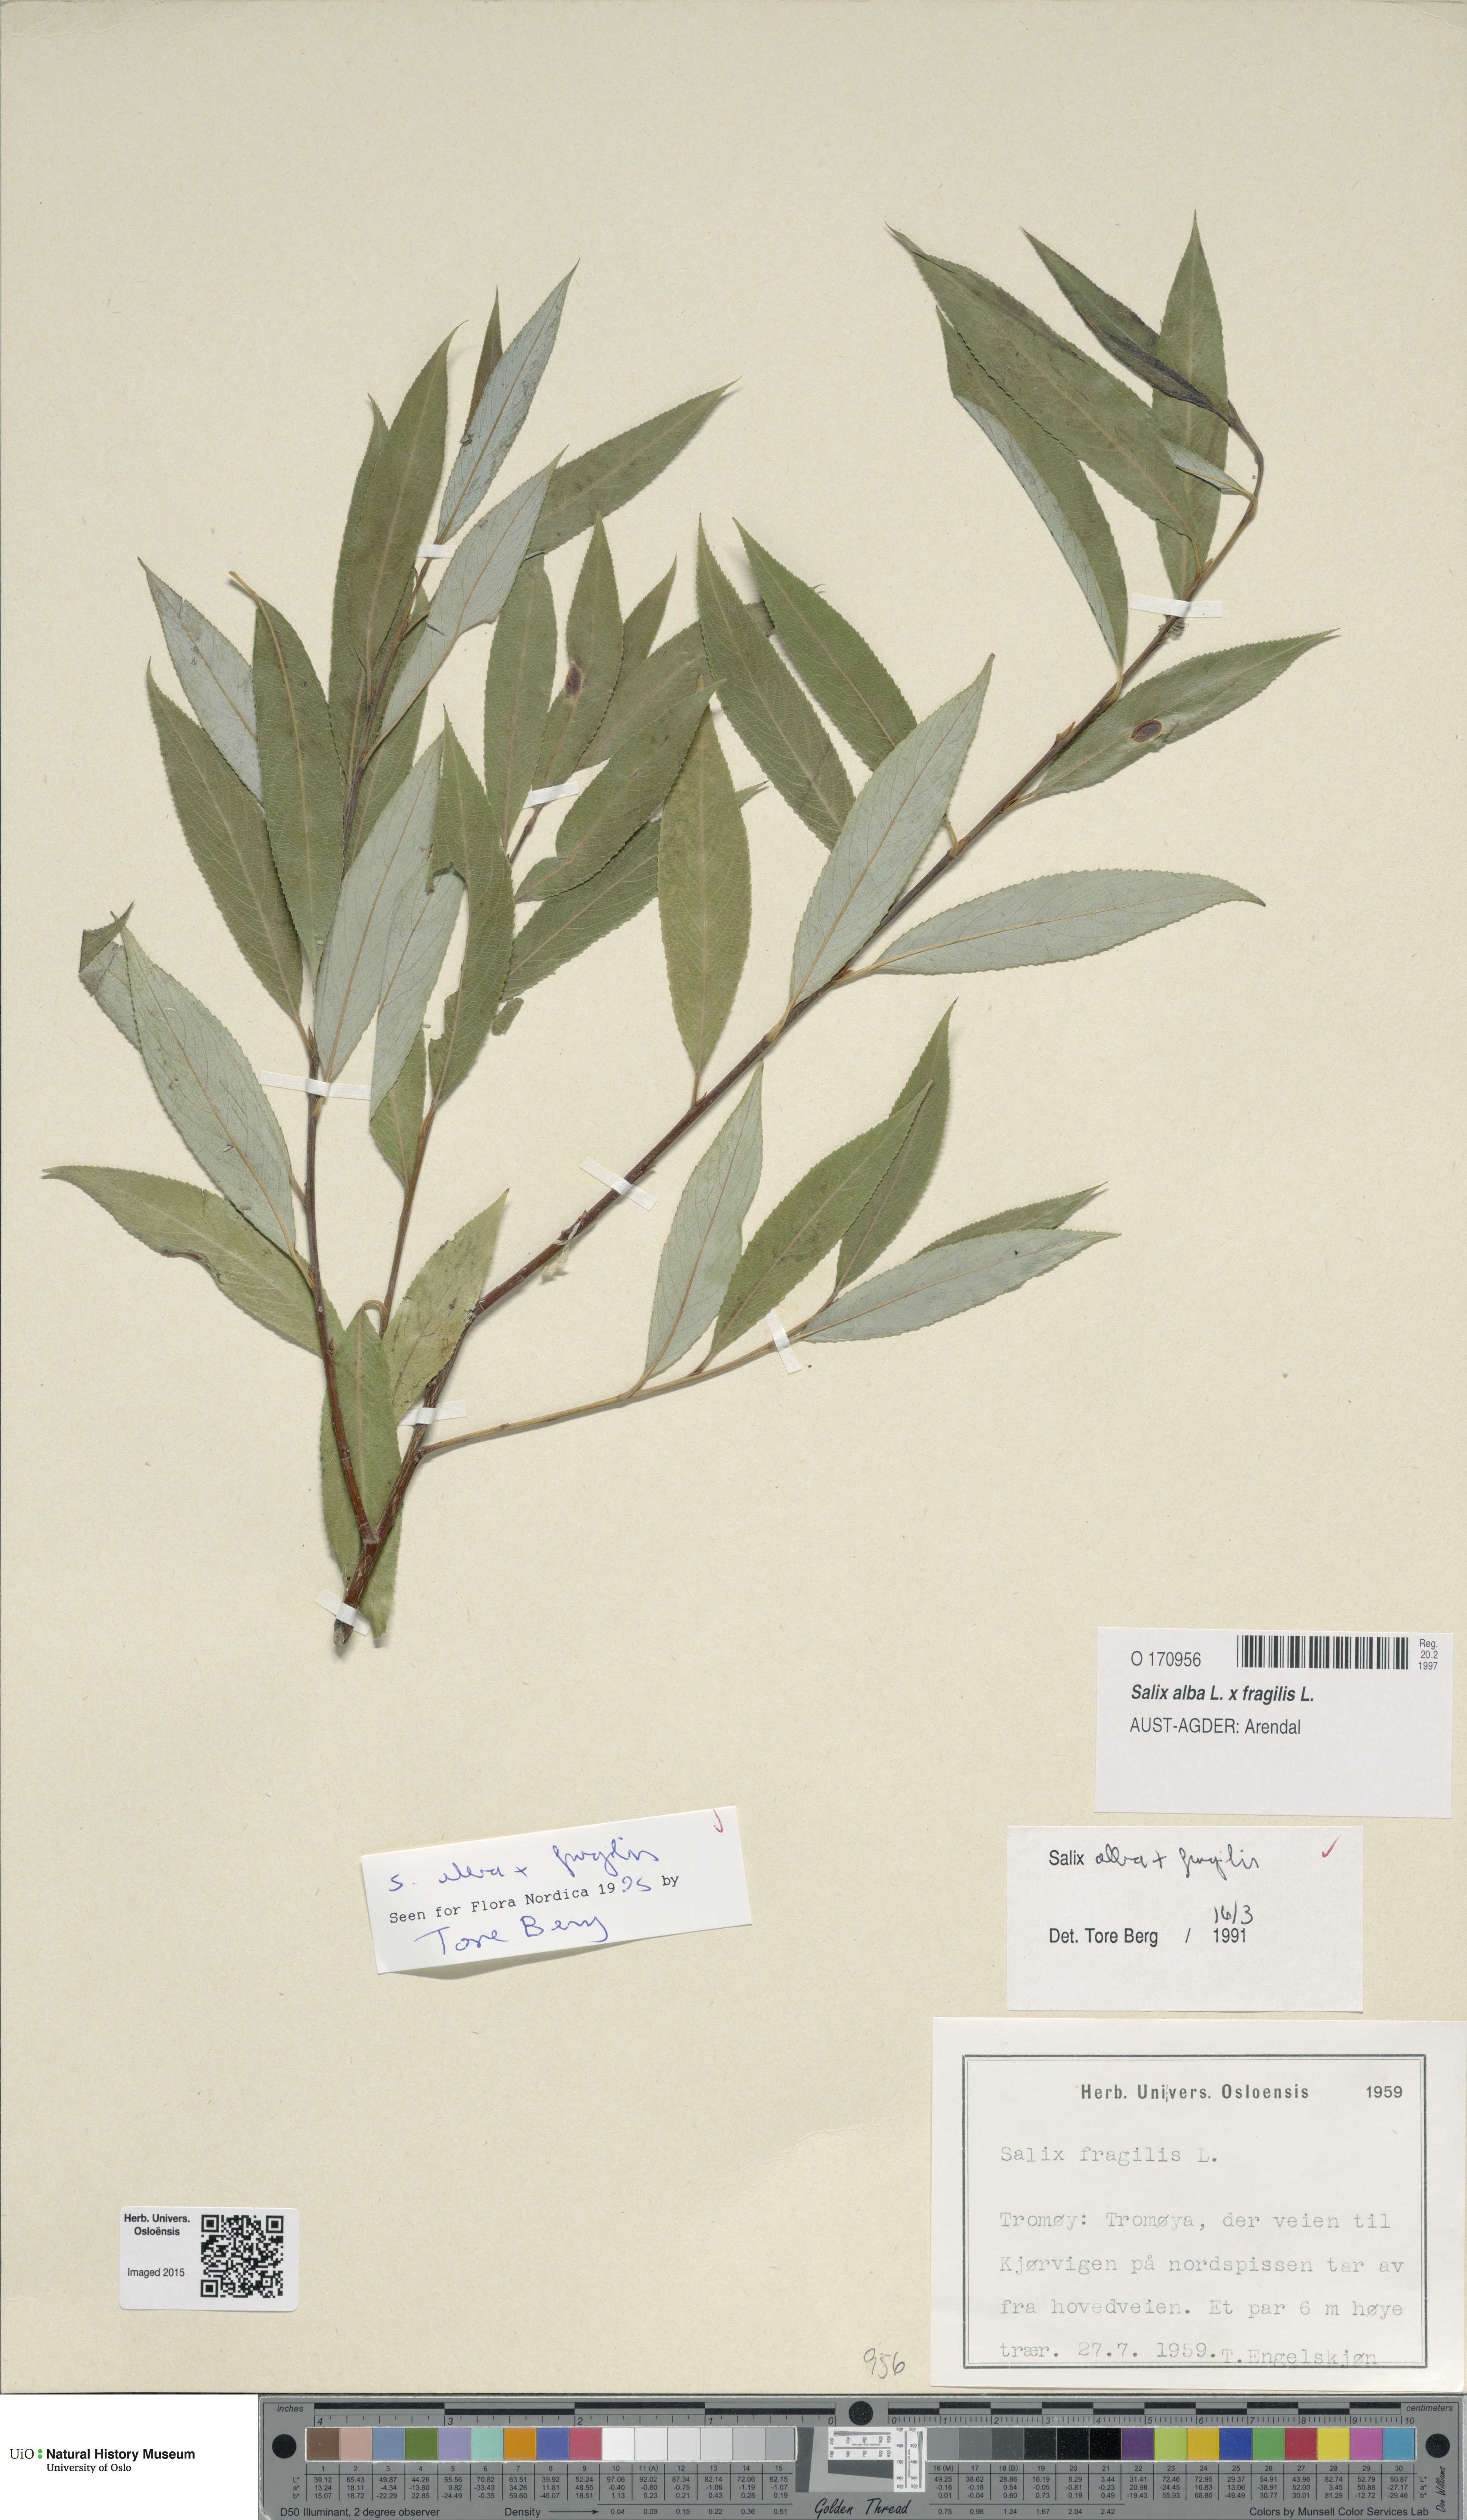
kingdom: Plantae
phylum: Tracheophyta
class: Magnoliopsida
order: Malpighiales
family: Salicaceae
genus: Salix
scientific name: Salix
